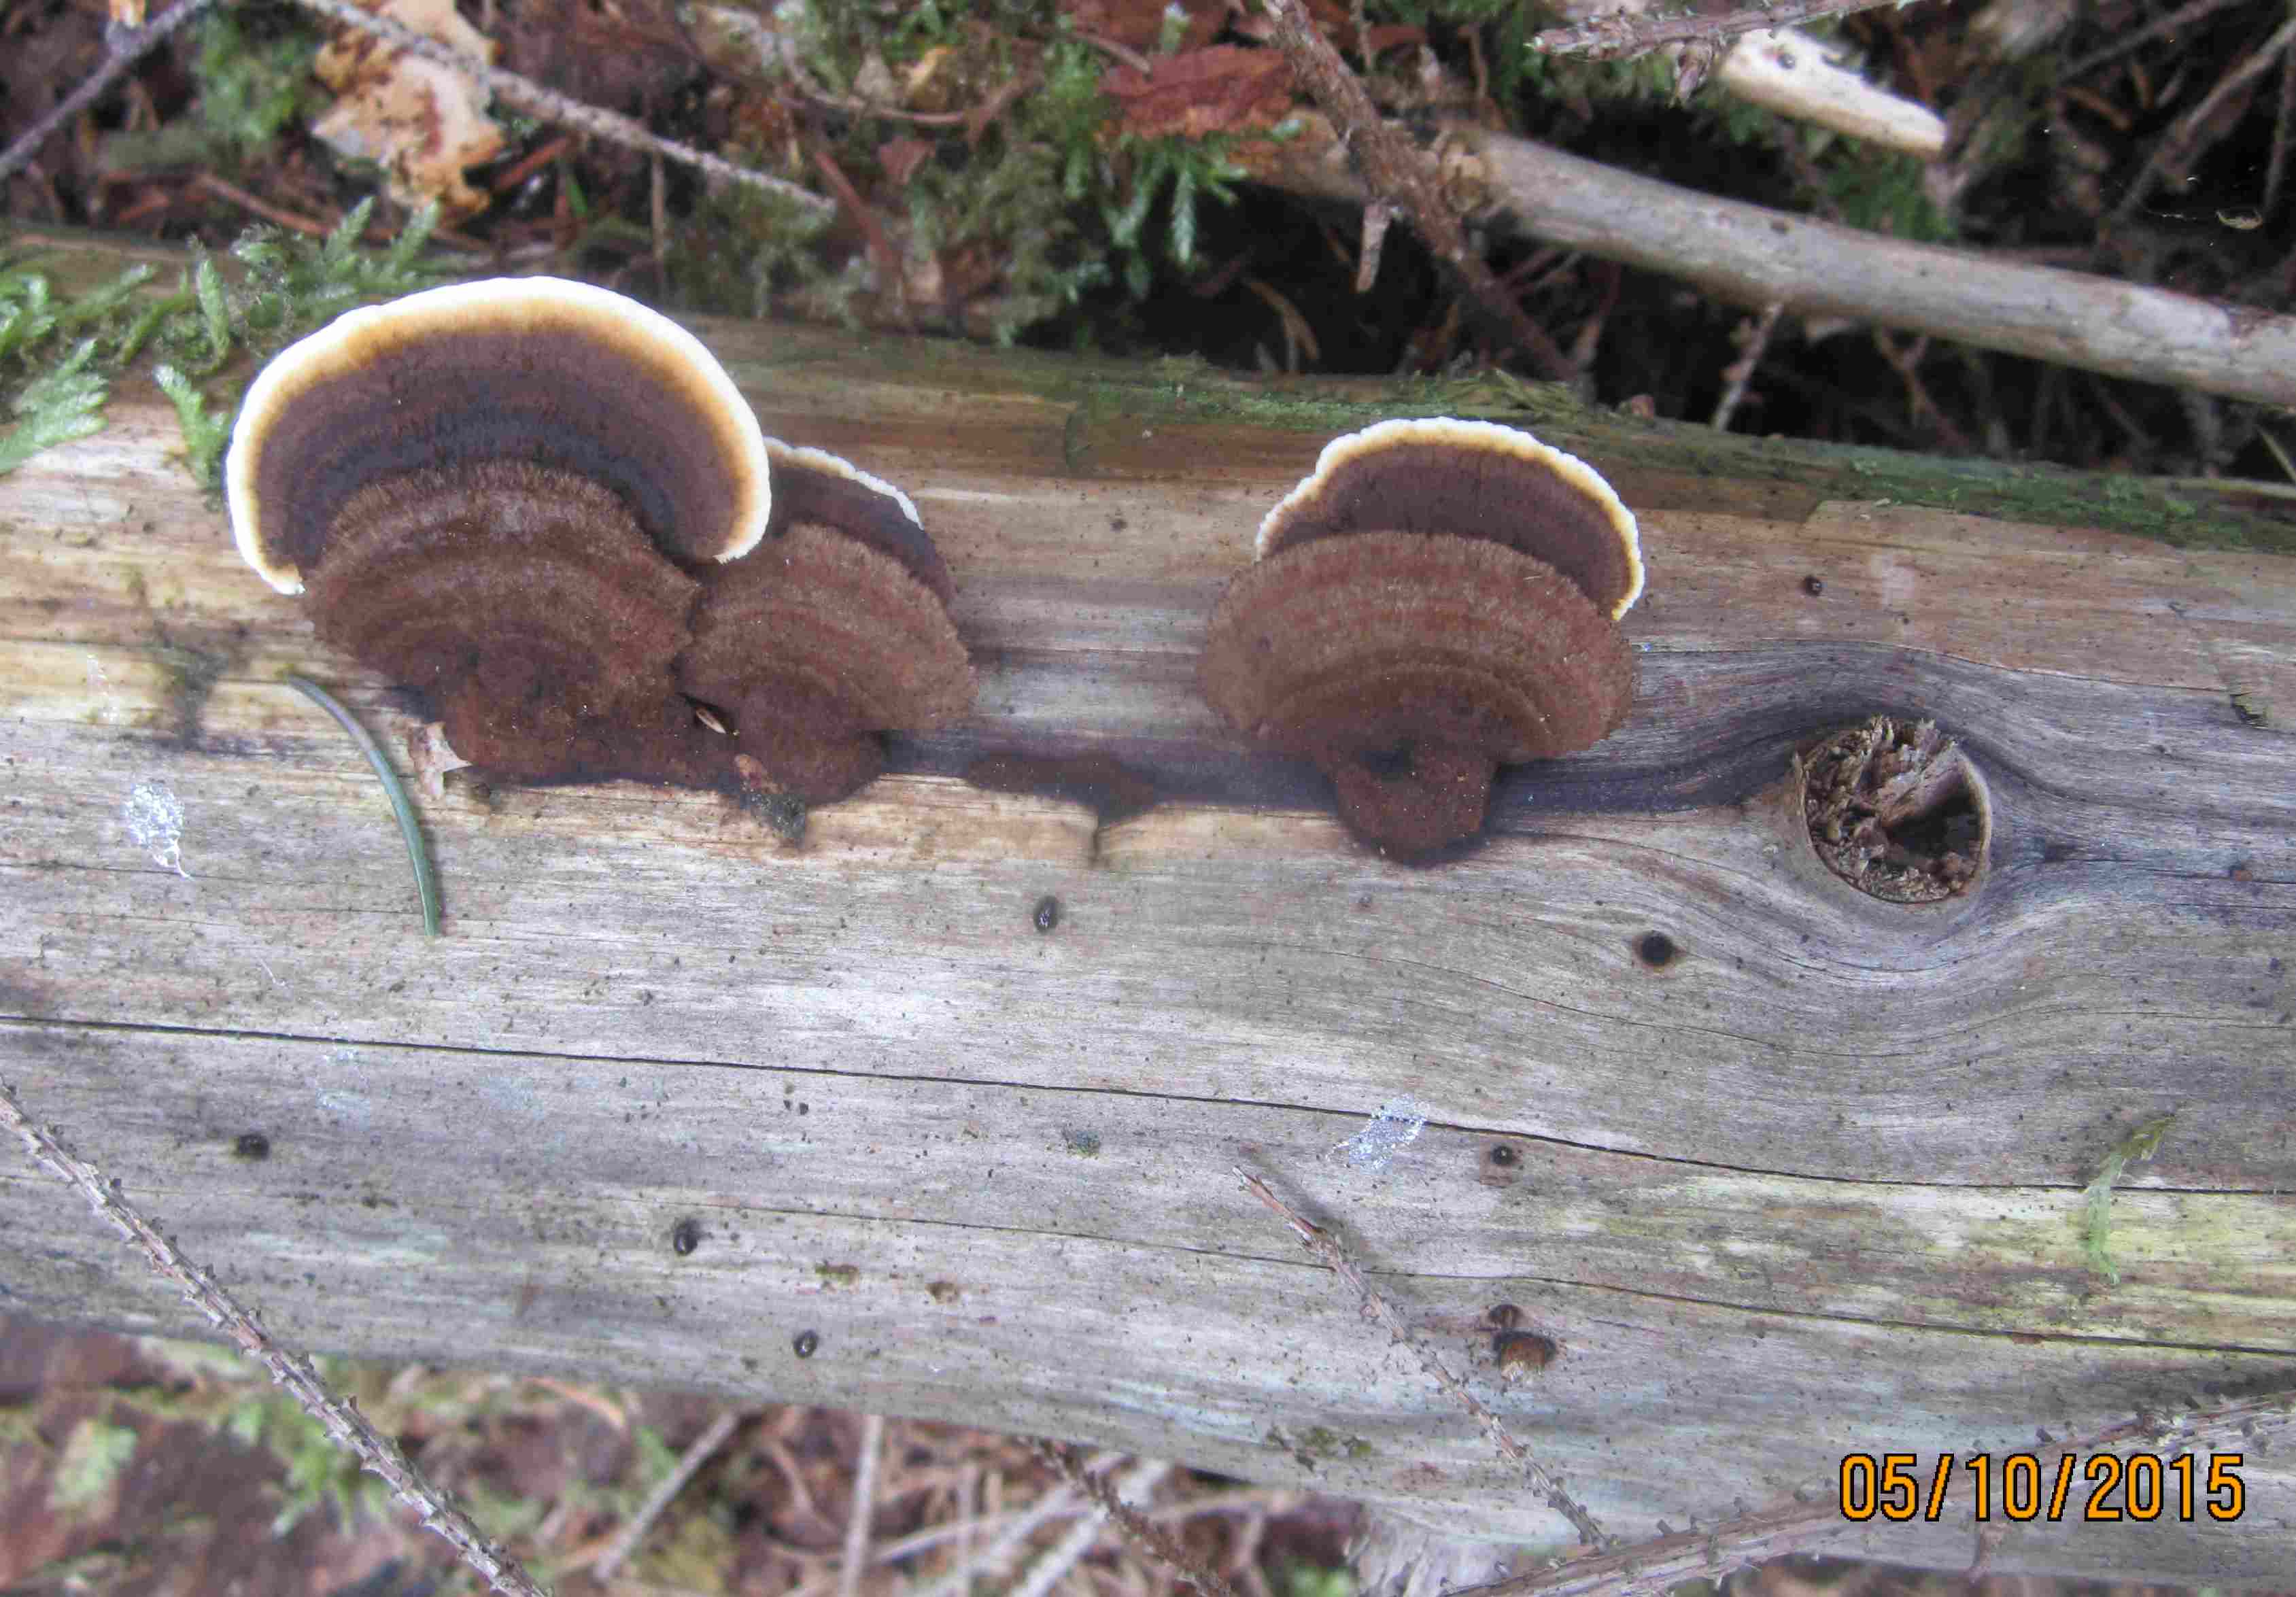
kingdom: Fungi
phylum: Basidiomycota
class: Agaricomycetes
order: Gloeophyllales
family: Gloeophyllaceae
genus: Gloeophyllum
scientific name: Gloeophyllum sepiarium
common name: fyrre-korkhat
